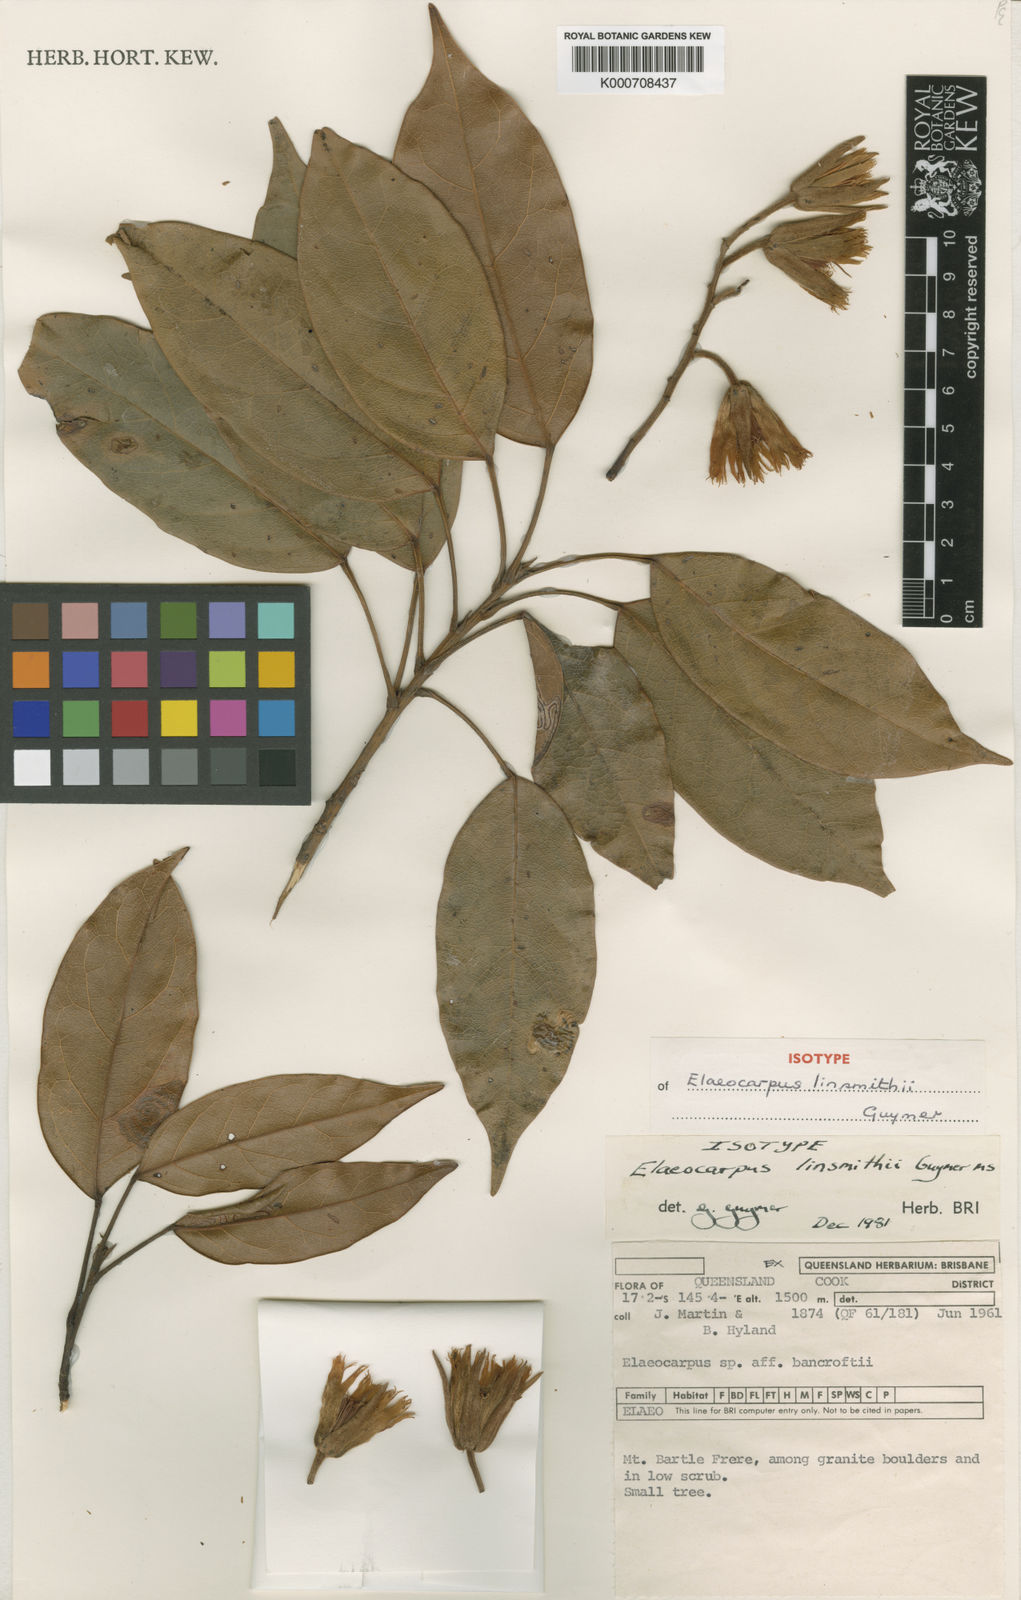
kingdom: Plantae
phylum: Tracheophyta
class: Magnoliopsida
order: Oxalidales
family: Elaeocarpaceae
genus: Elaeocarpus
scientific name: Elaeocarpus linsmithii
